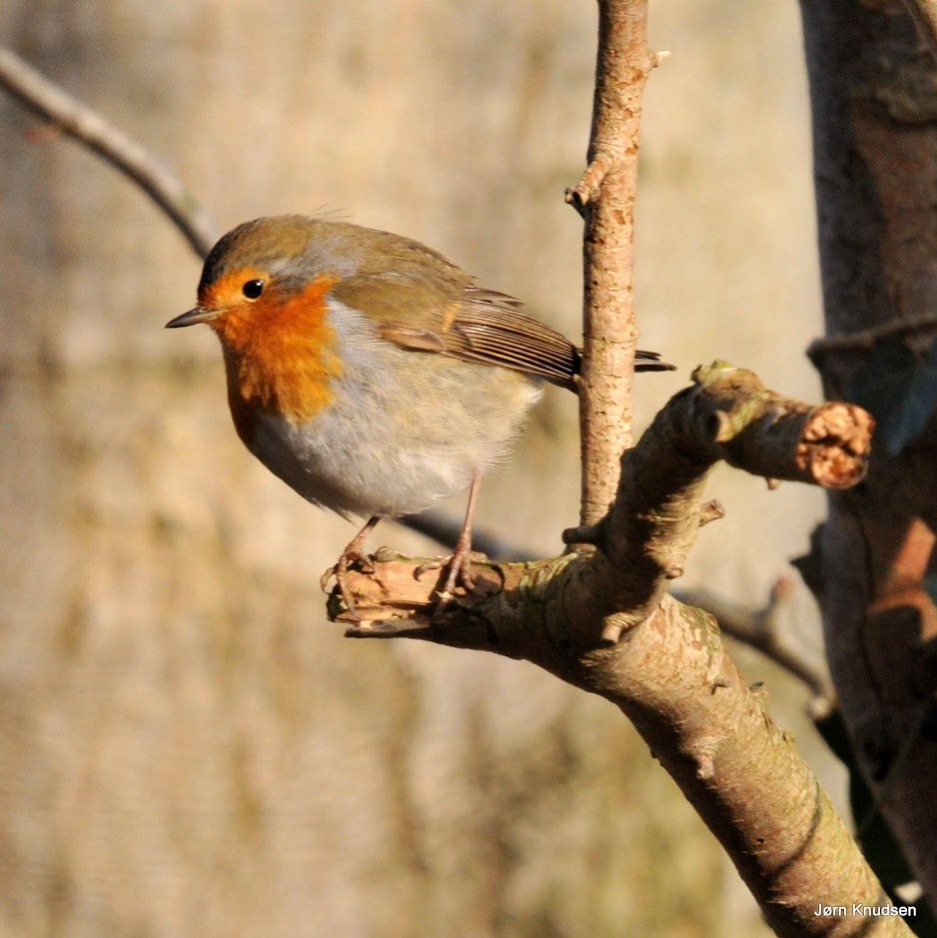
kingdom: Animalia
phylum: Chordata
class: Aves
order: Passeriformes
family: Muscicapidae
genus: Erithacus
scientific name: Erithacus rubecula
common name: Rødhals/rødkælk
